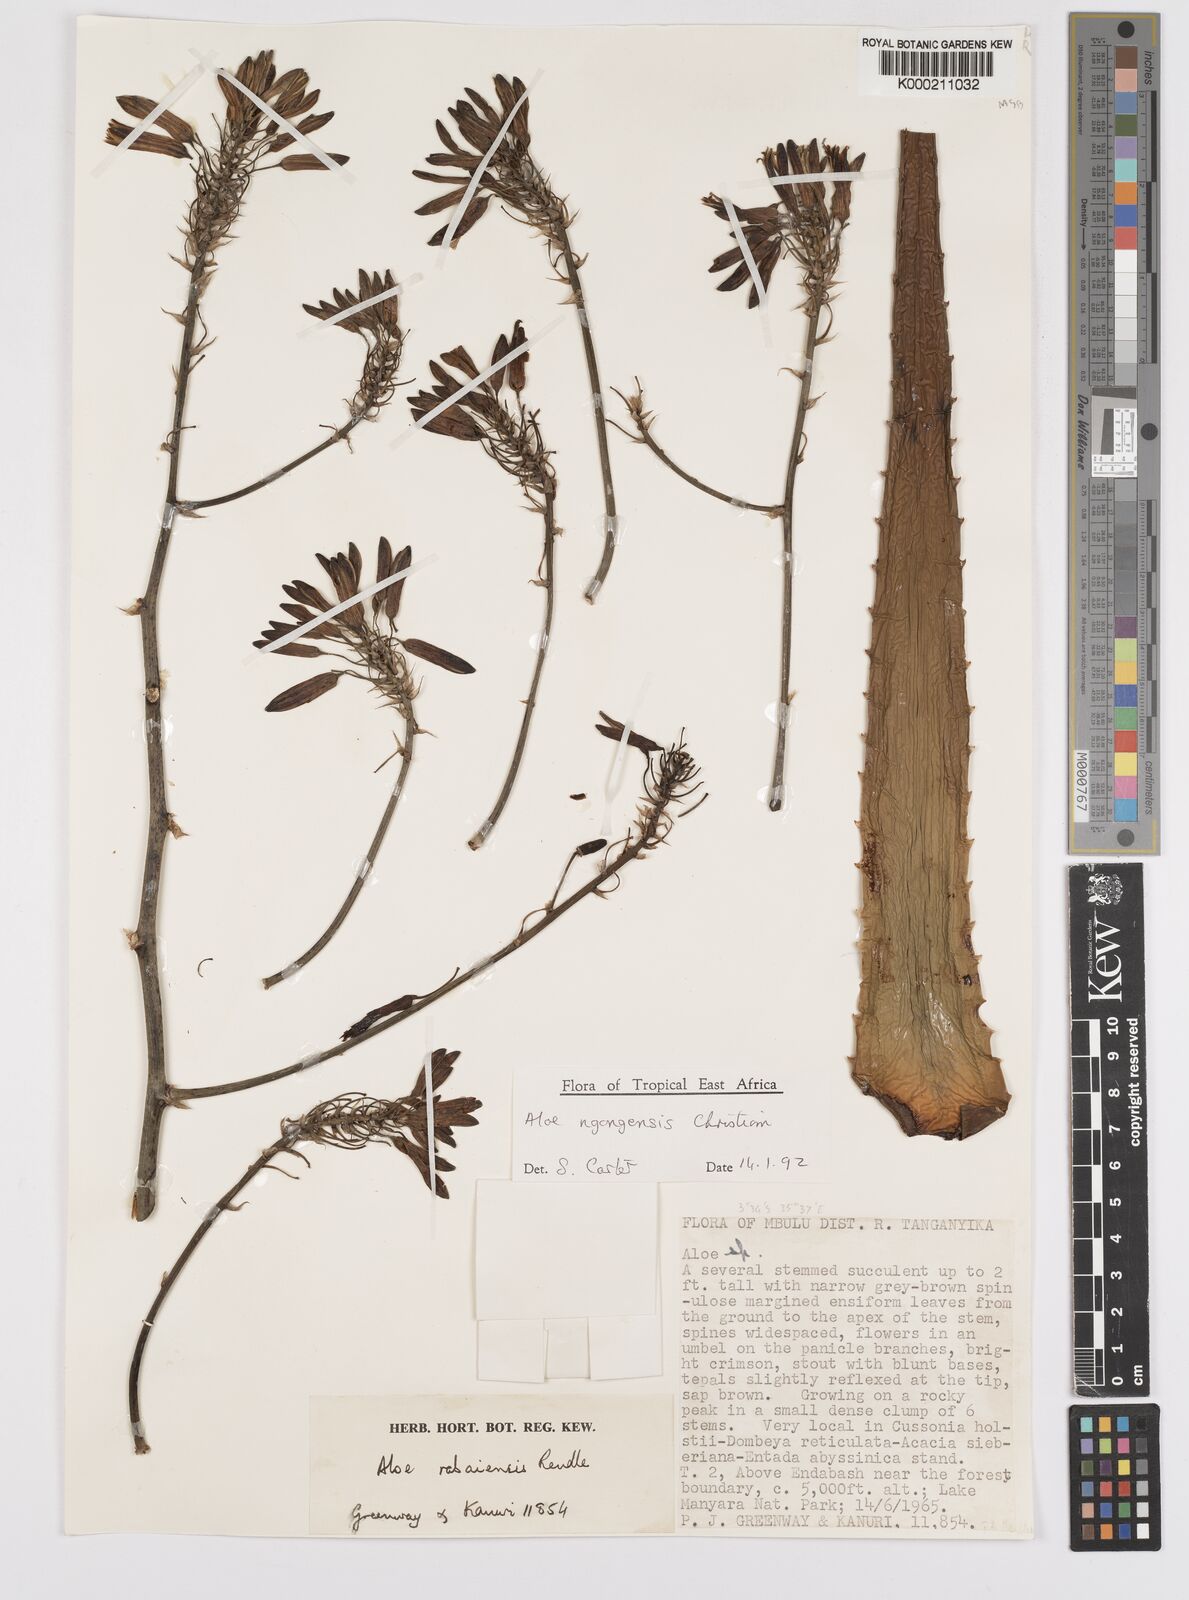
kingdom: Plantae
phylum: Tracheophyta
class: Liliopsida
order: Asparagales
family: Asphodelaceae
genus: Aloe
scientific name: Aloe ngongensis
